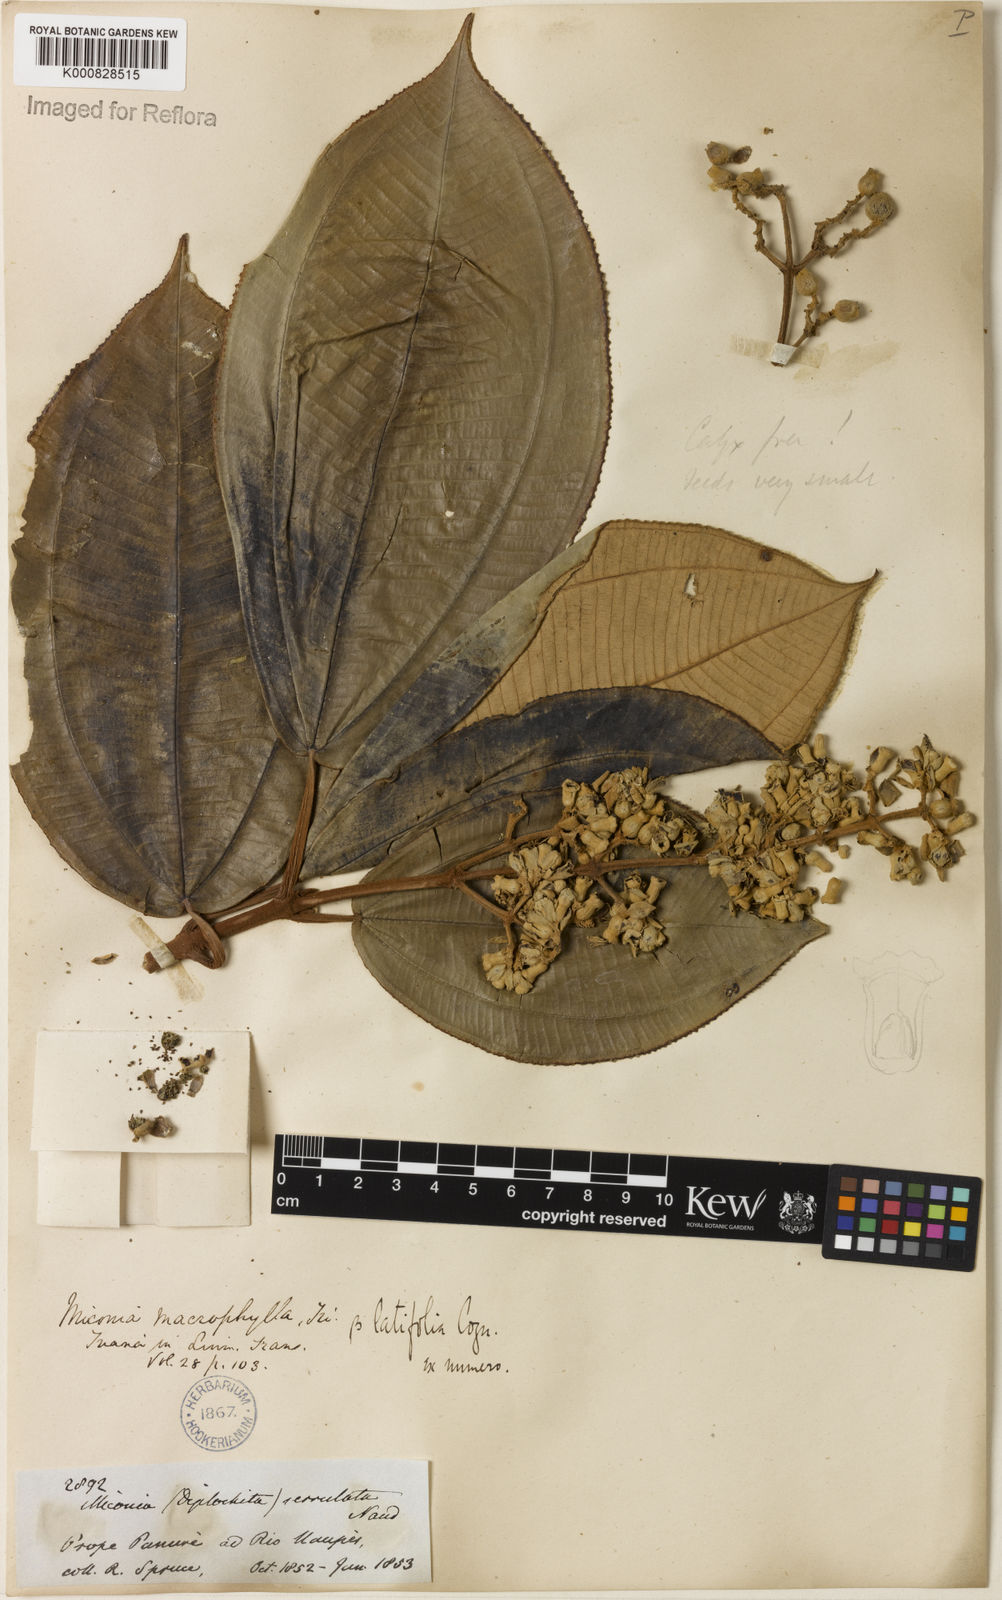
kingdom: Plantae
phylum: Tracheophyta
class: Magnoliopsida
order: Myrtales
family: Melastomataceae
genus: Miconia
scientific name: Miconia serrulata
